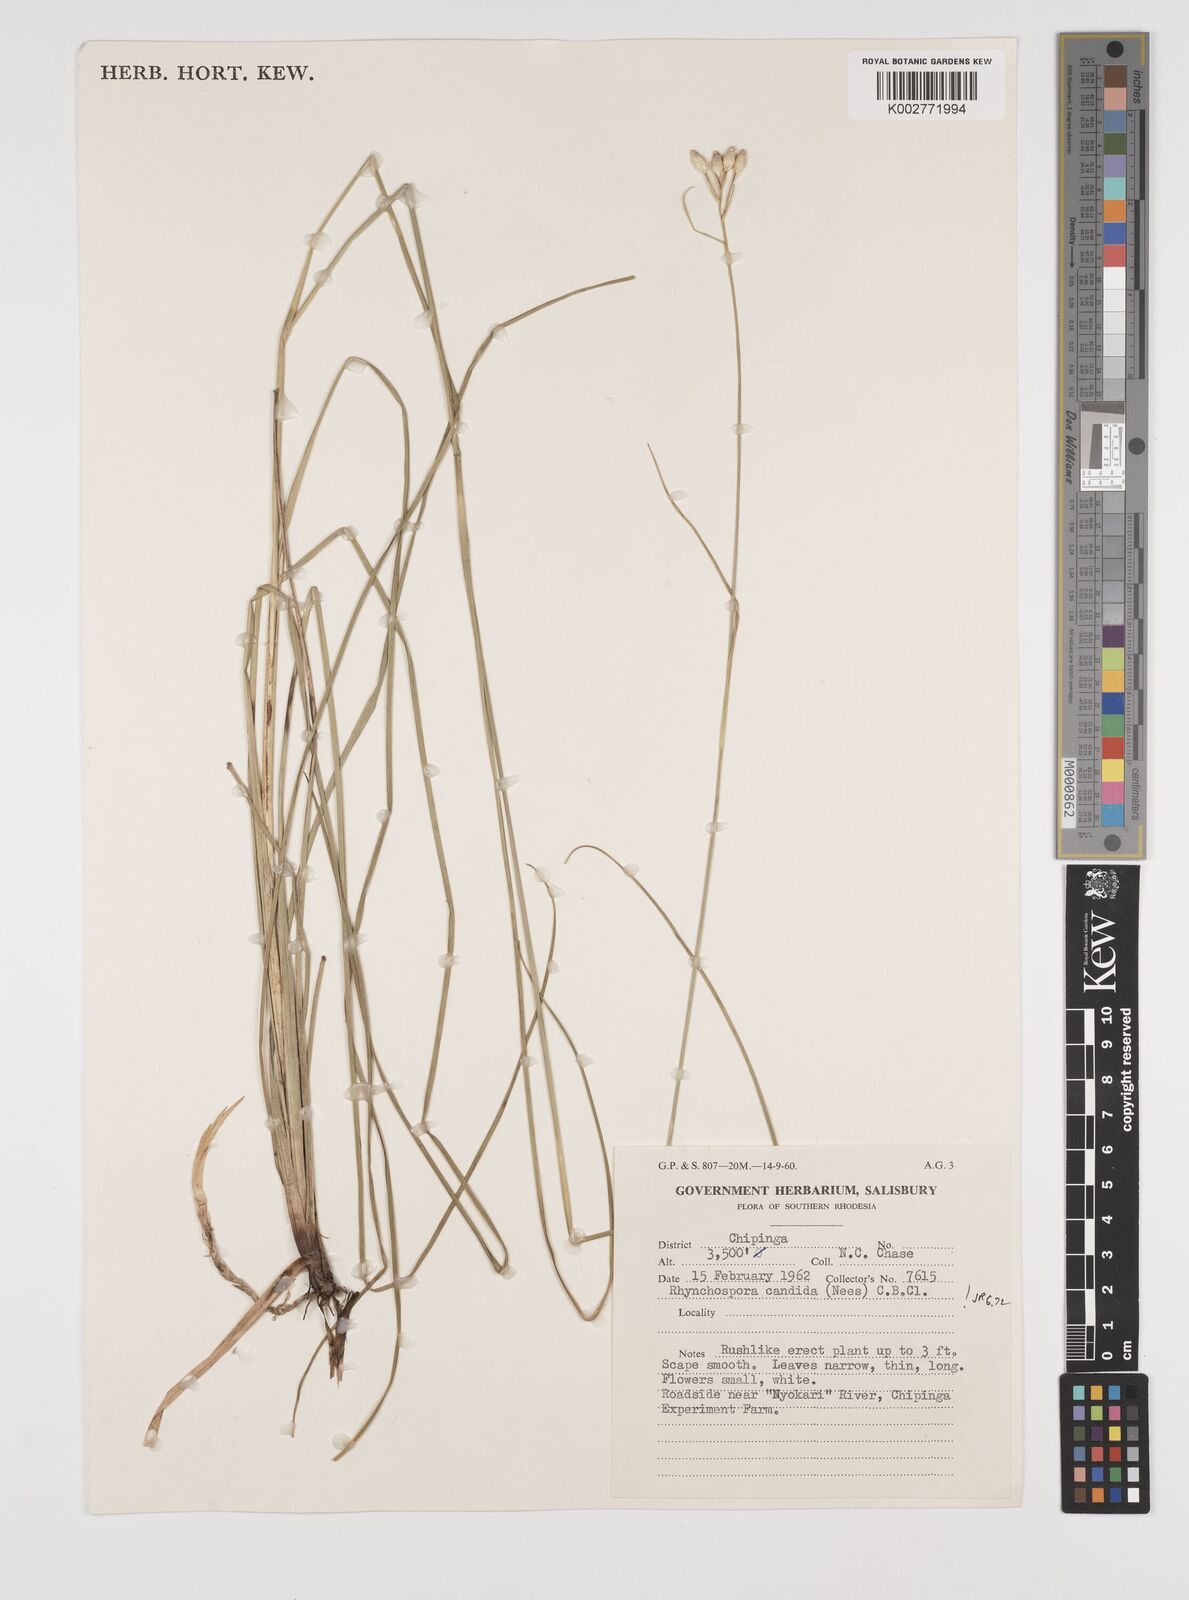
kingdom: Plantae
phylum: Tracheophyta
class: Liliopsida
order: Poales
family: Cyperaceae
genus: Rhynchospora
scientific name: Rhynchospora candida
